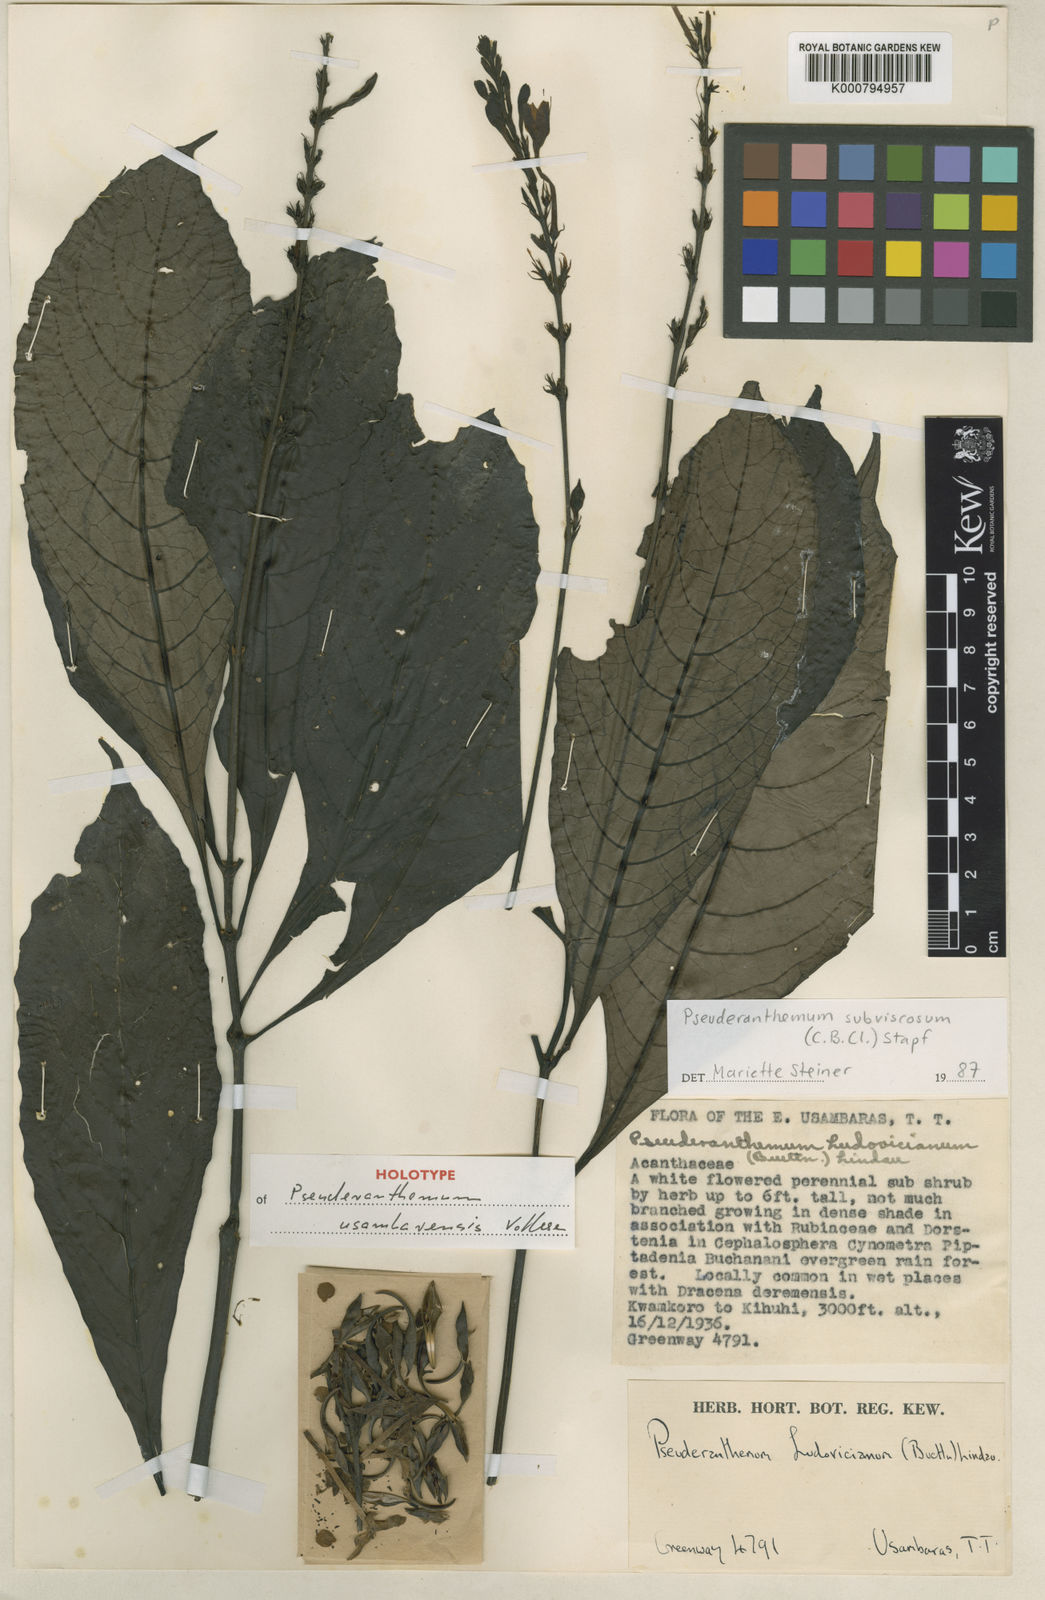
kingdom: Plantae
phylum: Tracheophyta
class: Magnoliopsida
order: Lamiales
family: Acanthaceae
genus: Pseuderanthemum
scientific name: Pseuderanthemum usambarensis
